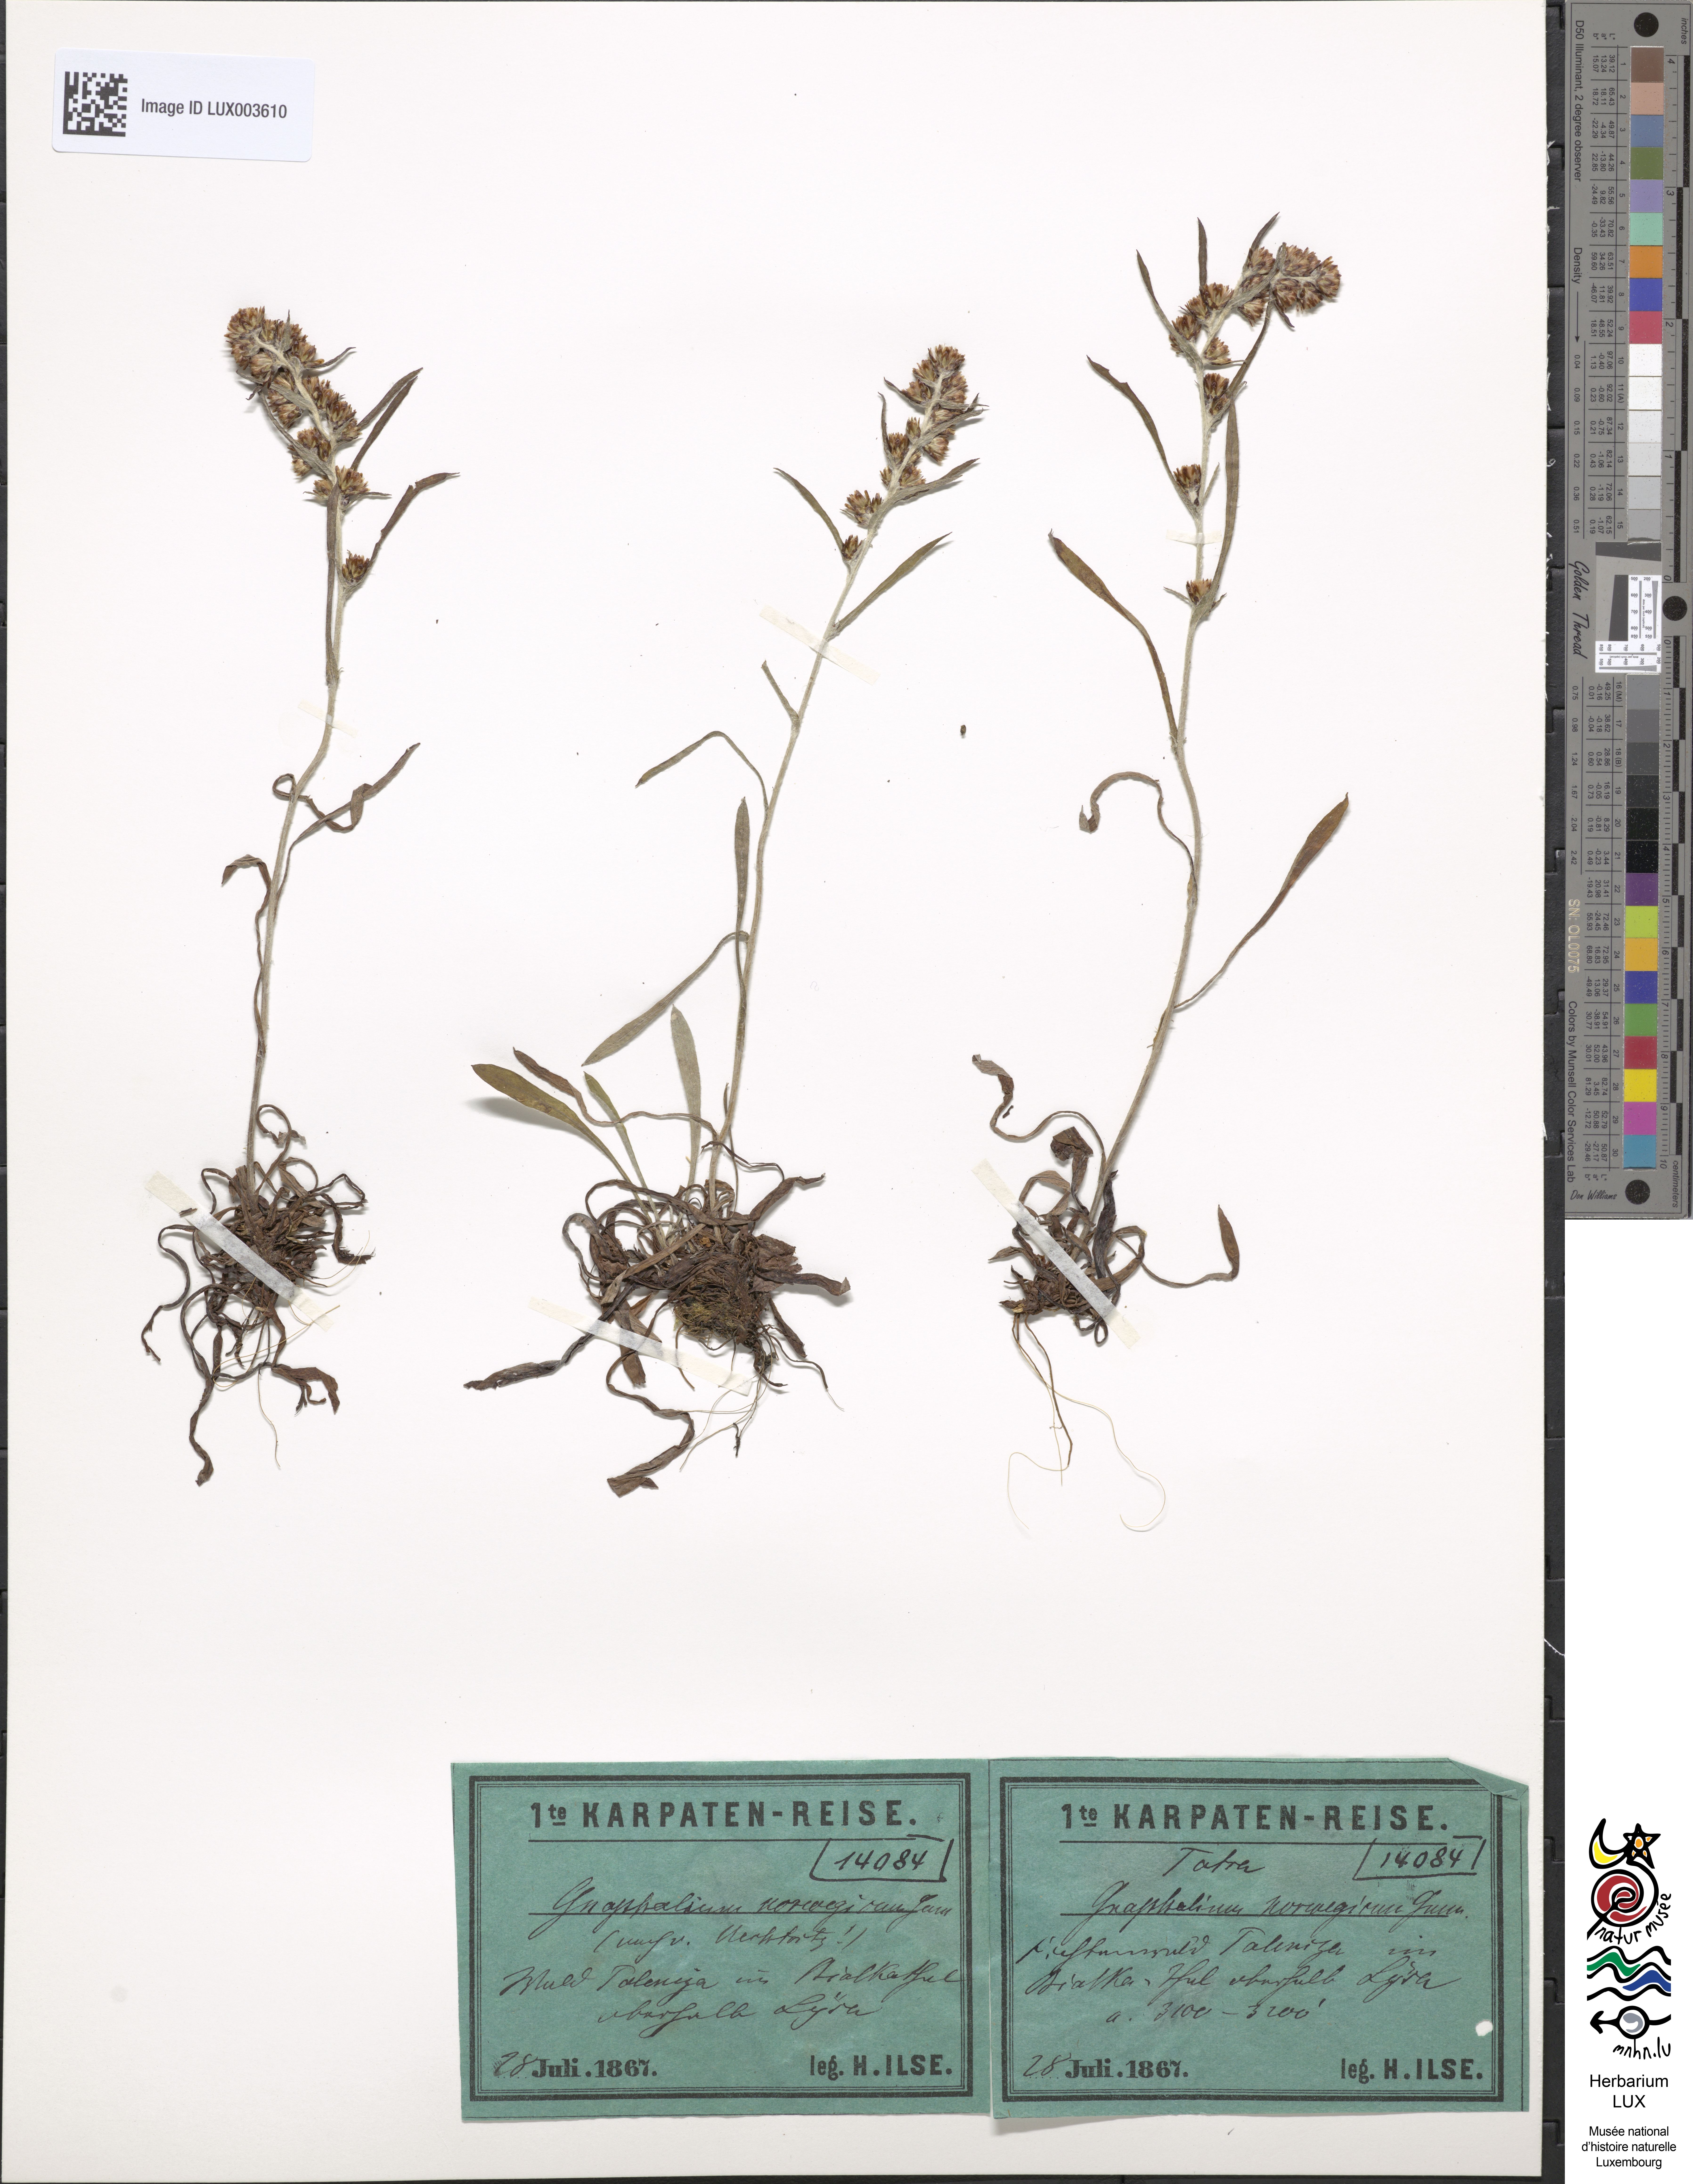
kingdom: Plantae
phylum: Tracheophyta
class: Magnoliopsida
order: Asterales
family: Asteraceae
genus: Omalotheca
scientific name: Omalotheca norvegica
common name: Norwegian arctic-cudweed
